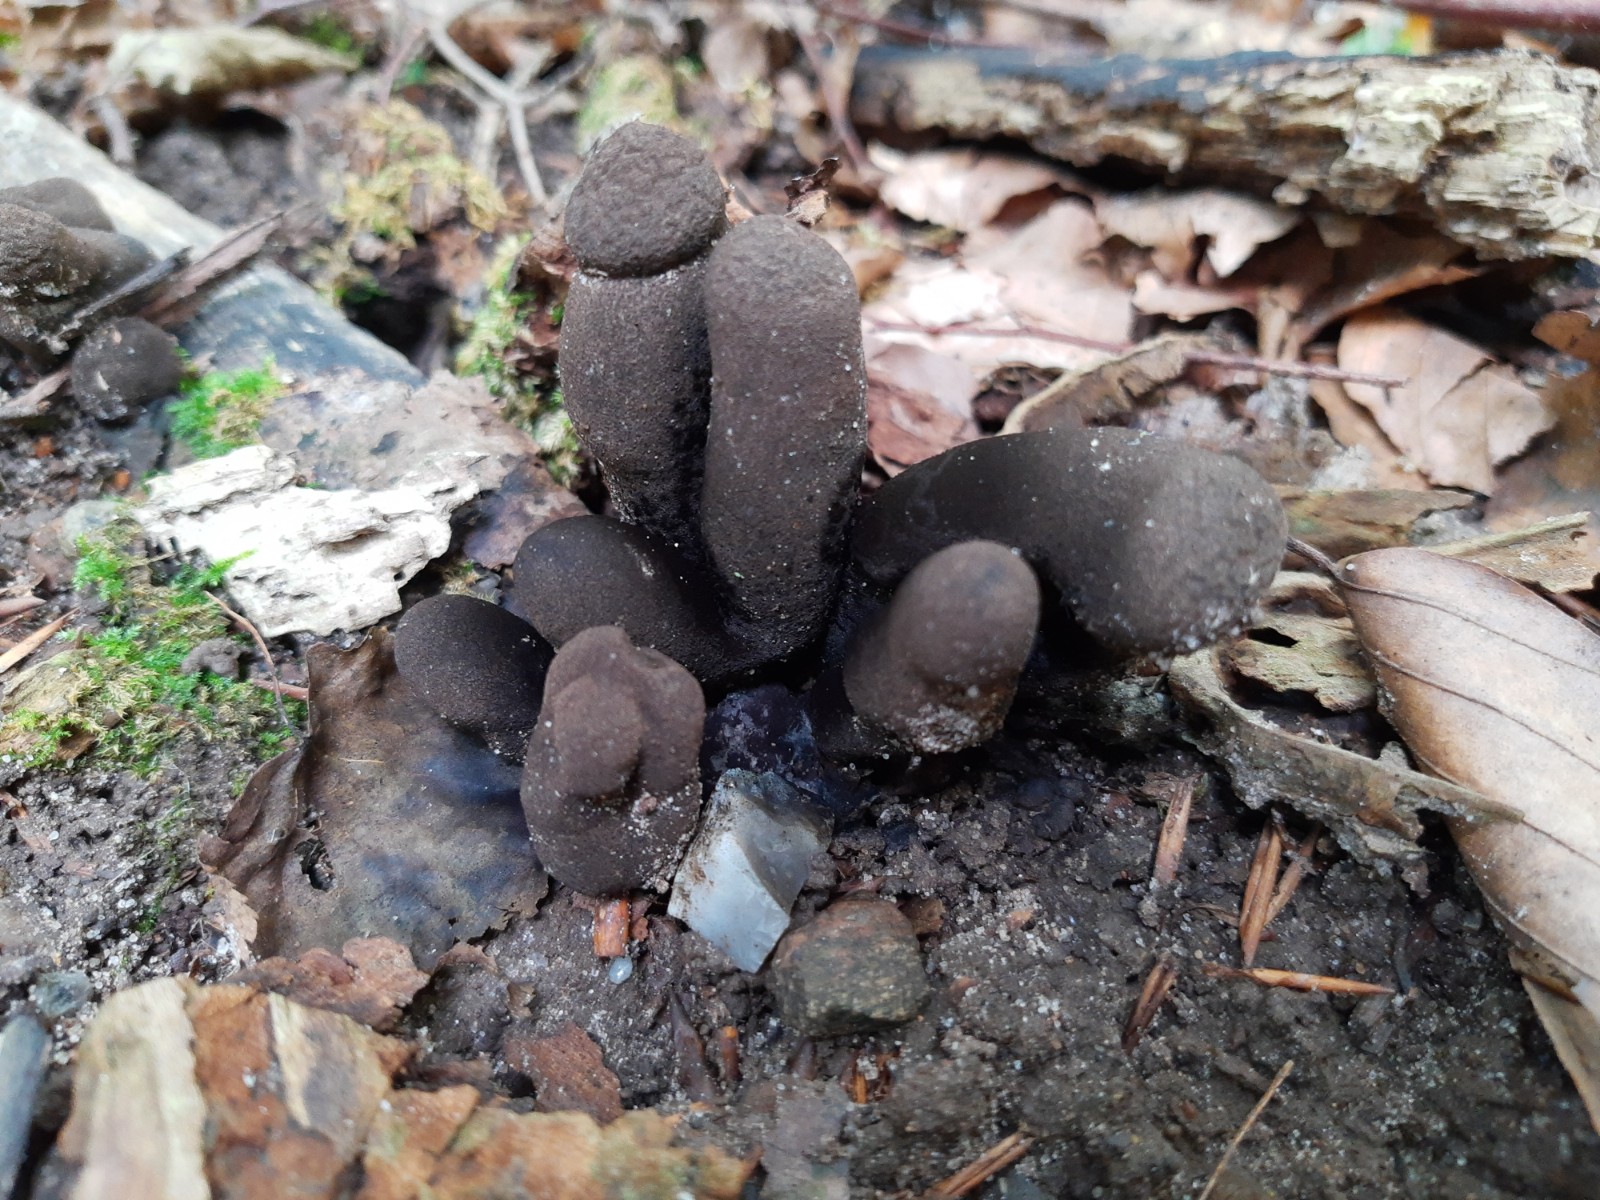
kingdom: Fungi
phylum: Ascomycota
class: Sordariomycetes
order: Xylariales
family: Xylariaceae
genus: Xylaria
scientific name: Xylaria polymorpha
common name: kølle-stødsvamp
